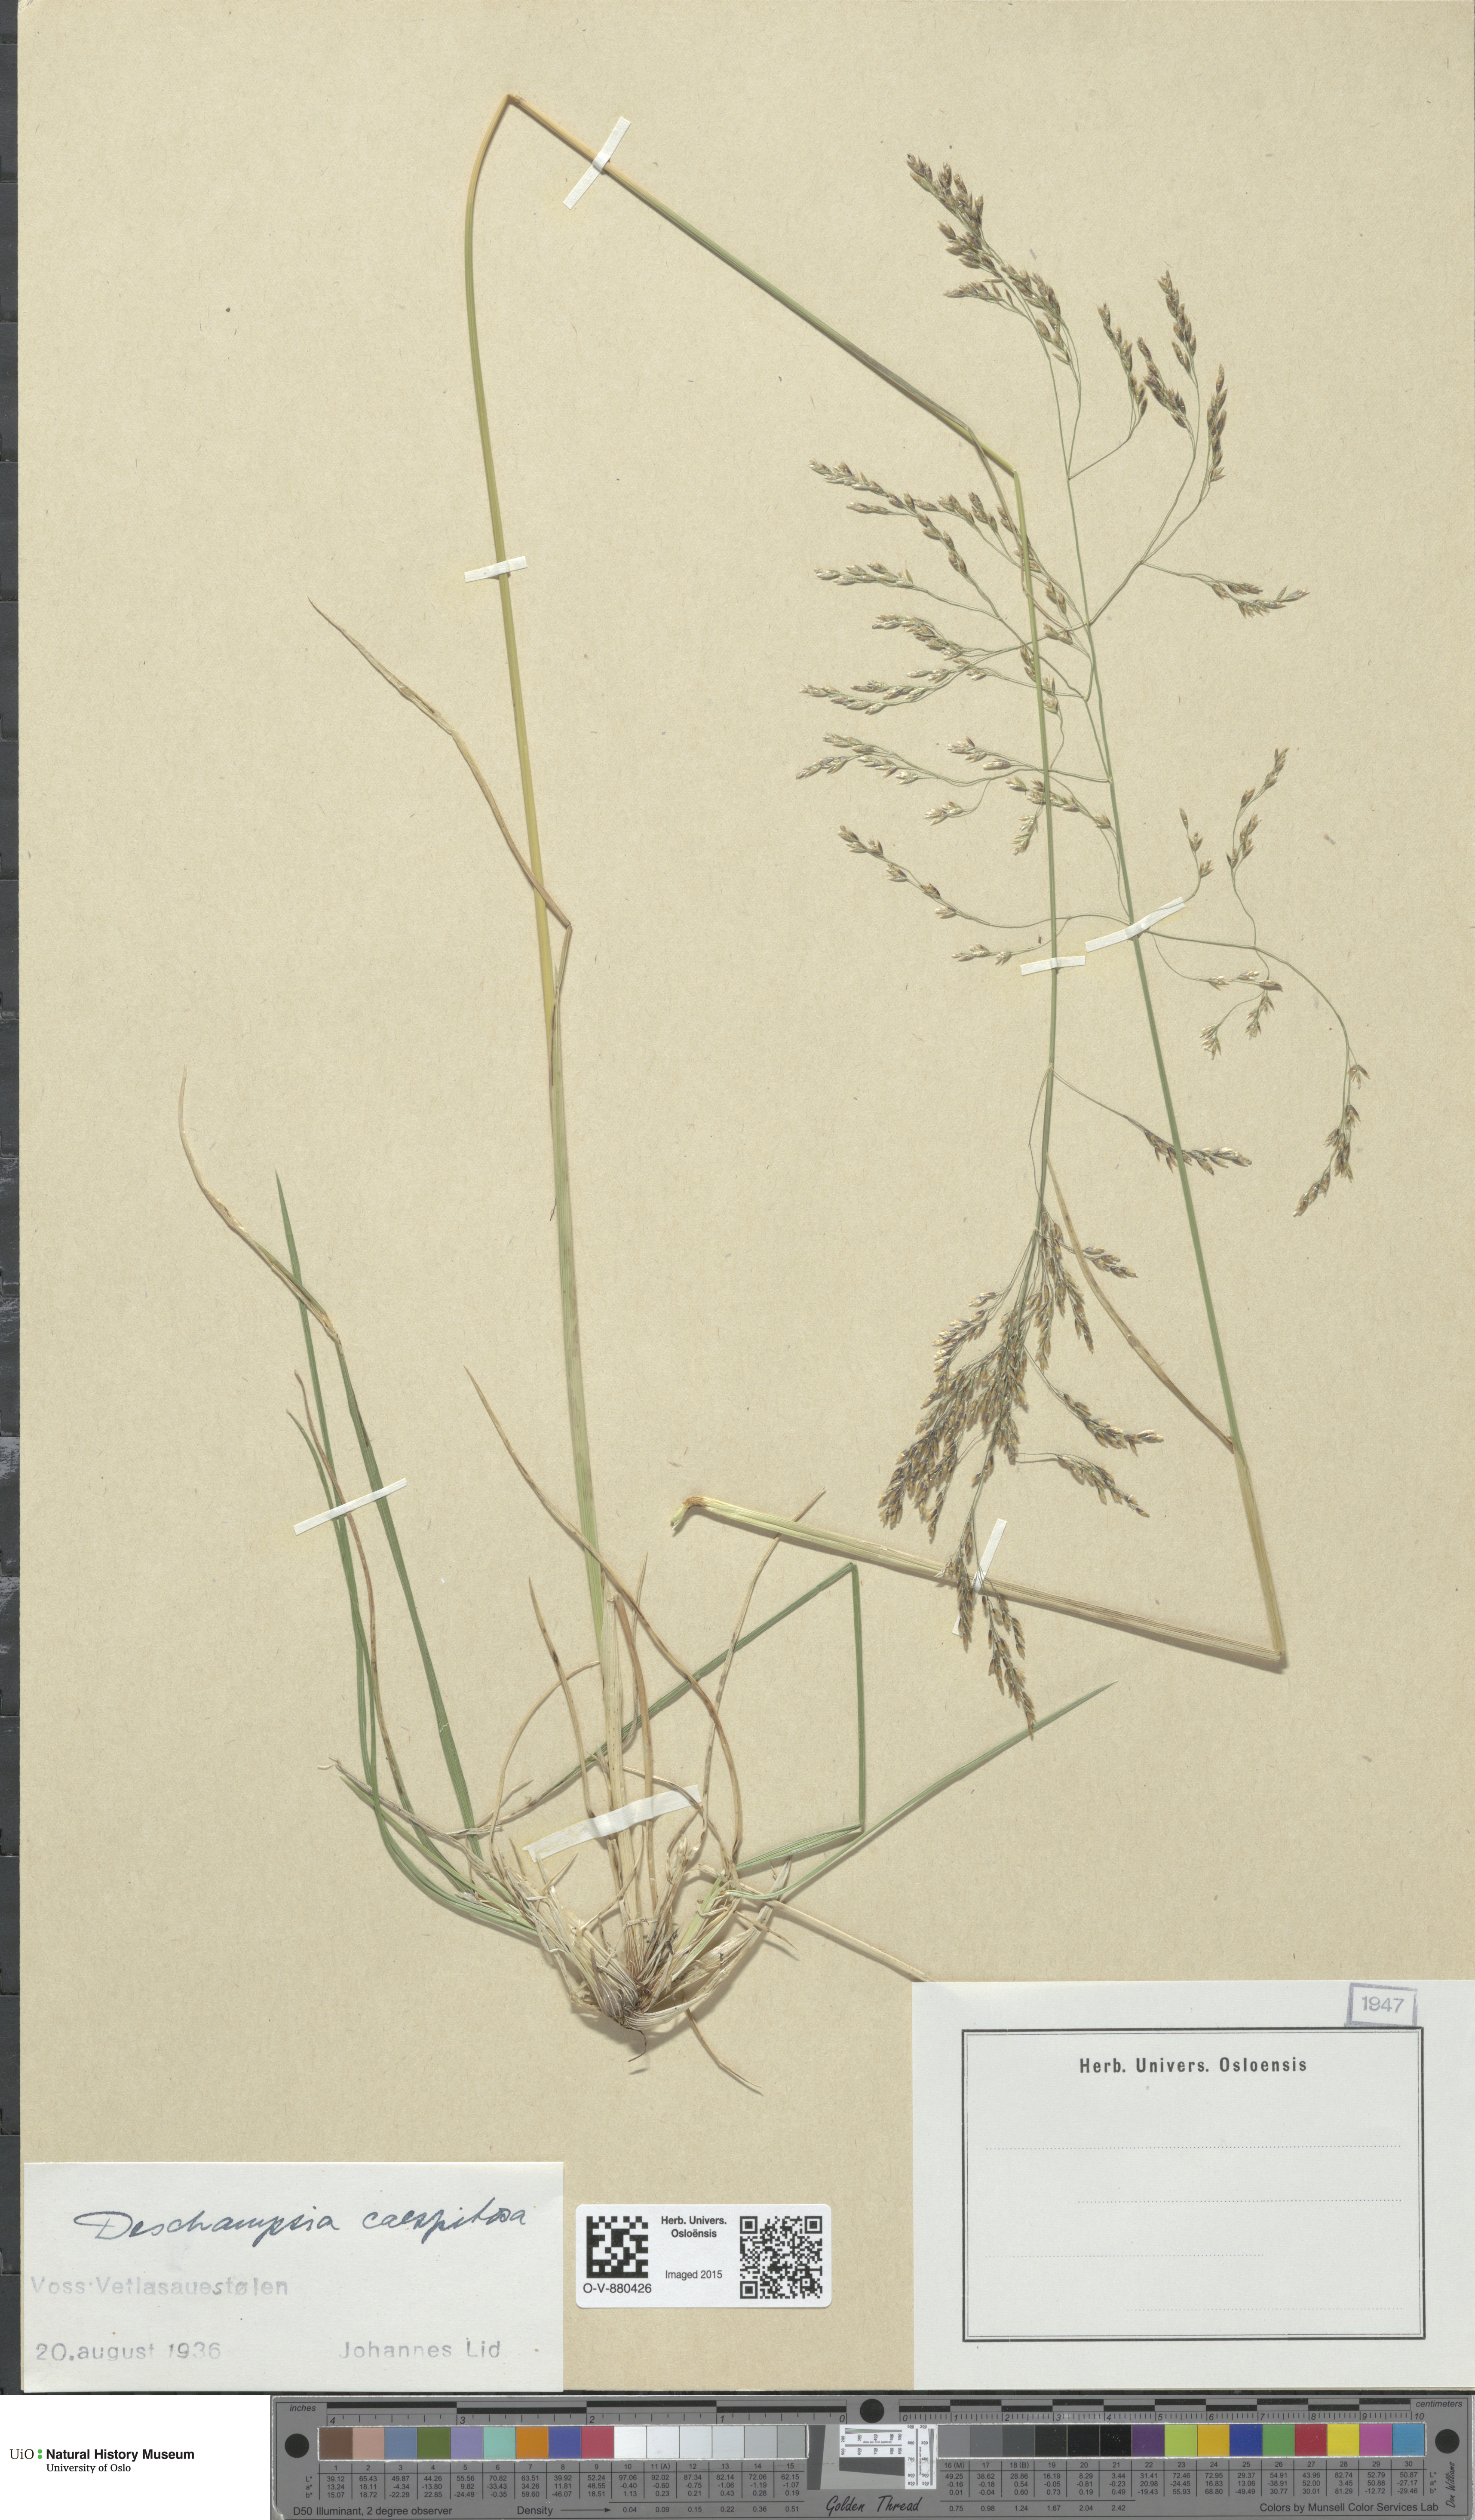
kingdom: Plantae
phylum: Tracheophyta
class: Liliopsida
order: Poales
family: Poaceae
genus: Deschampsia
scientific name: Deschampsia cespitosa
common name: Tufted hair-grass
